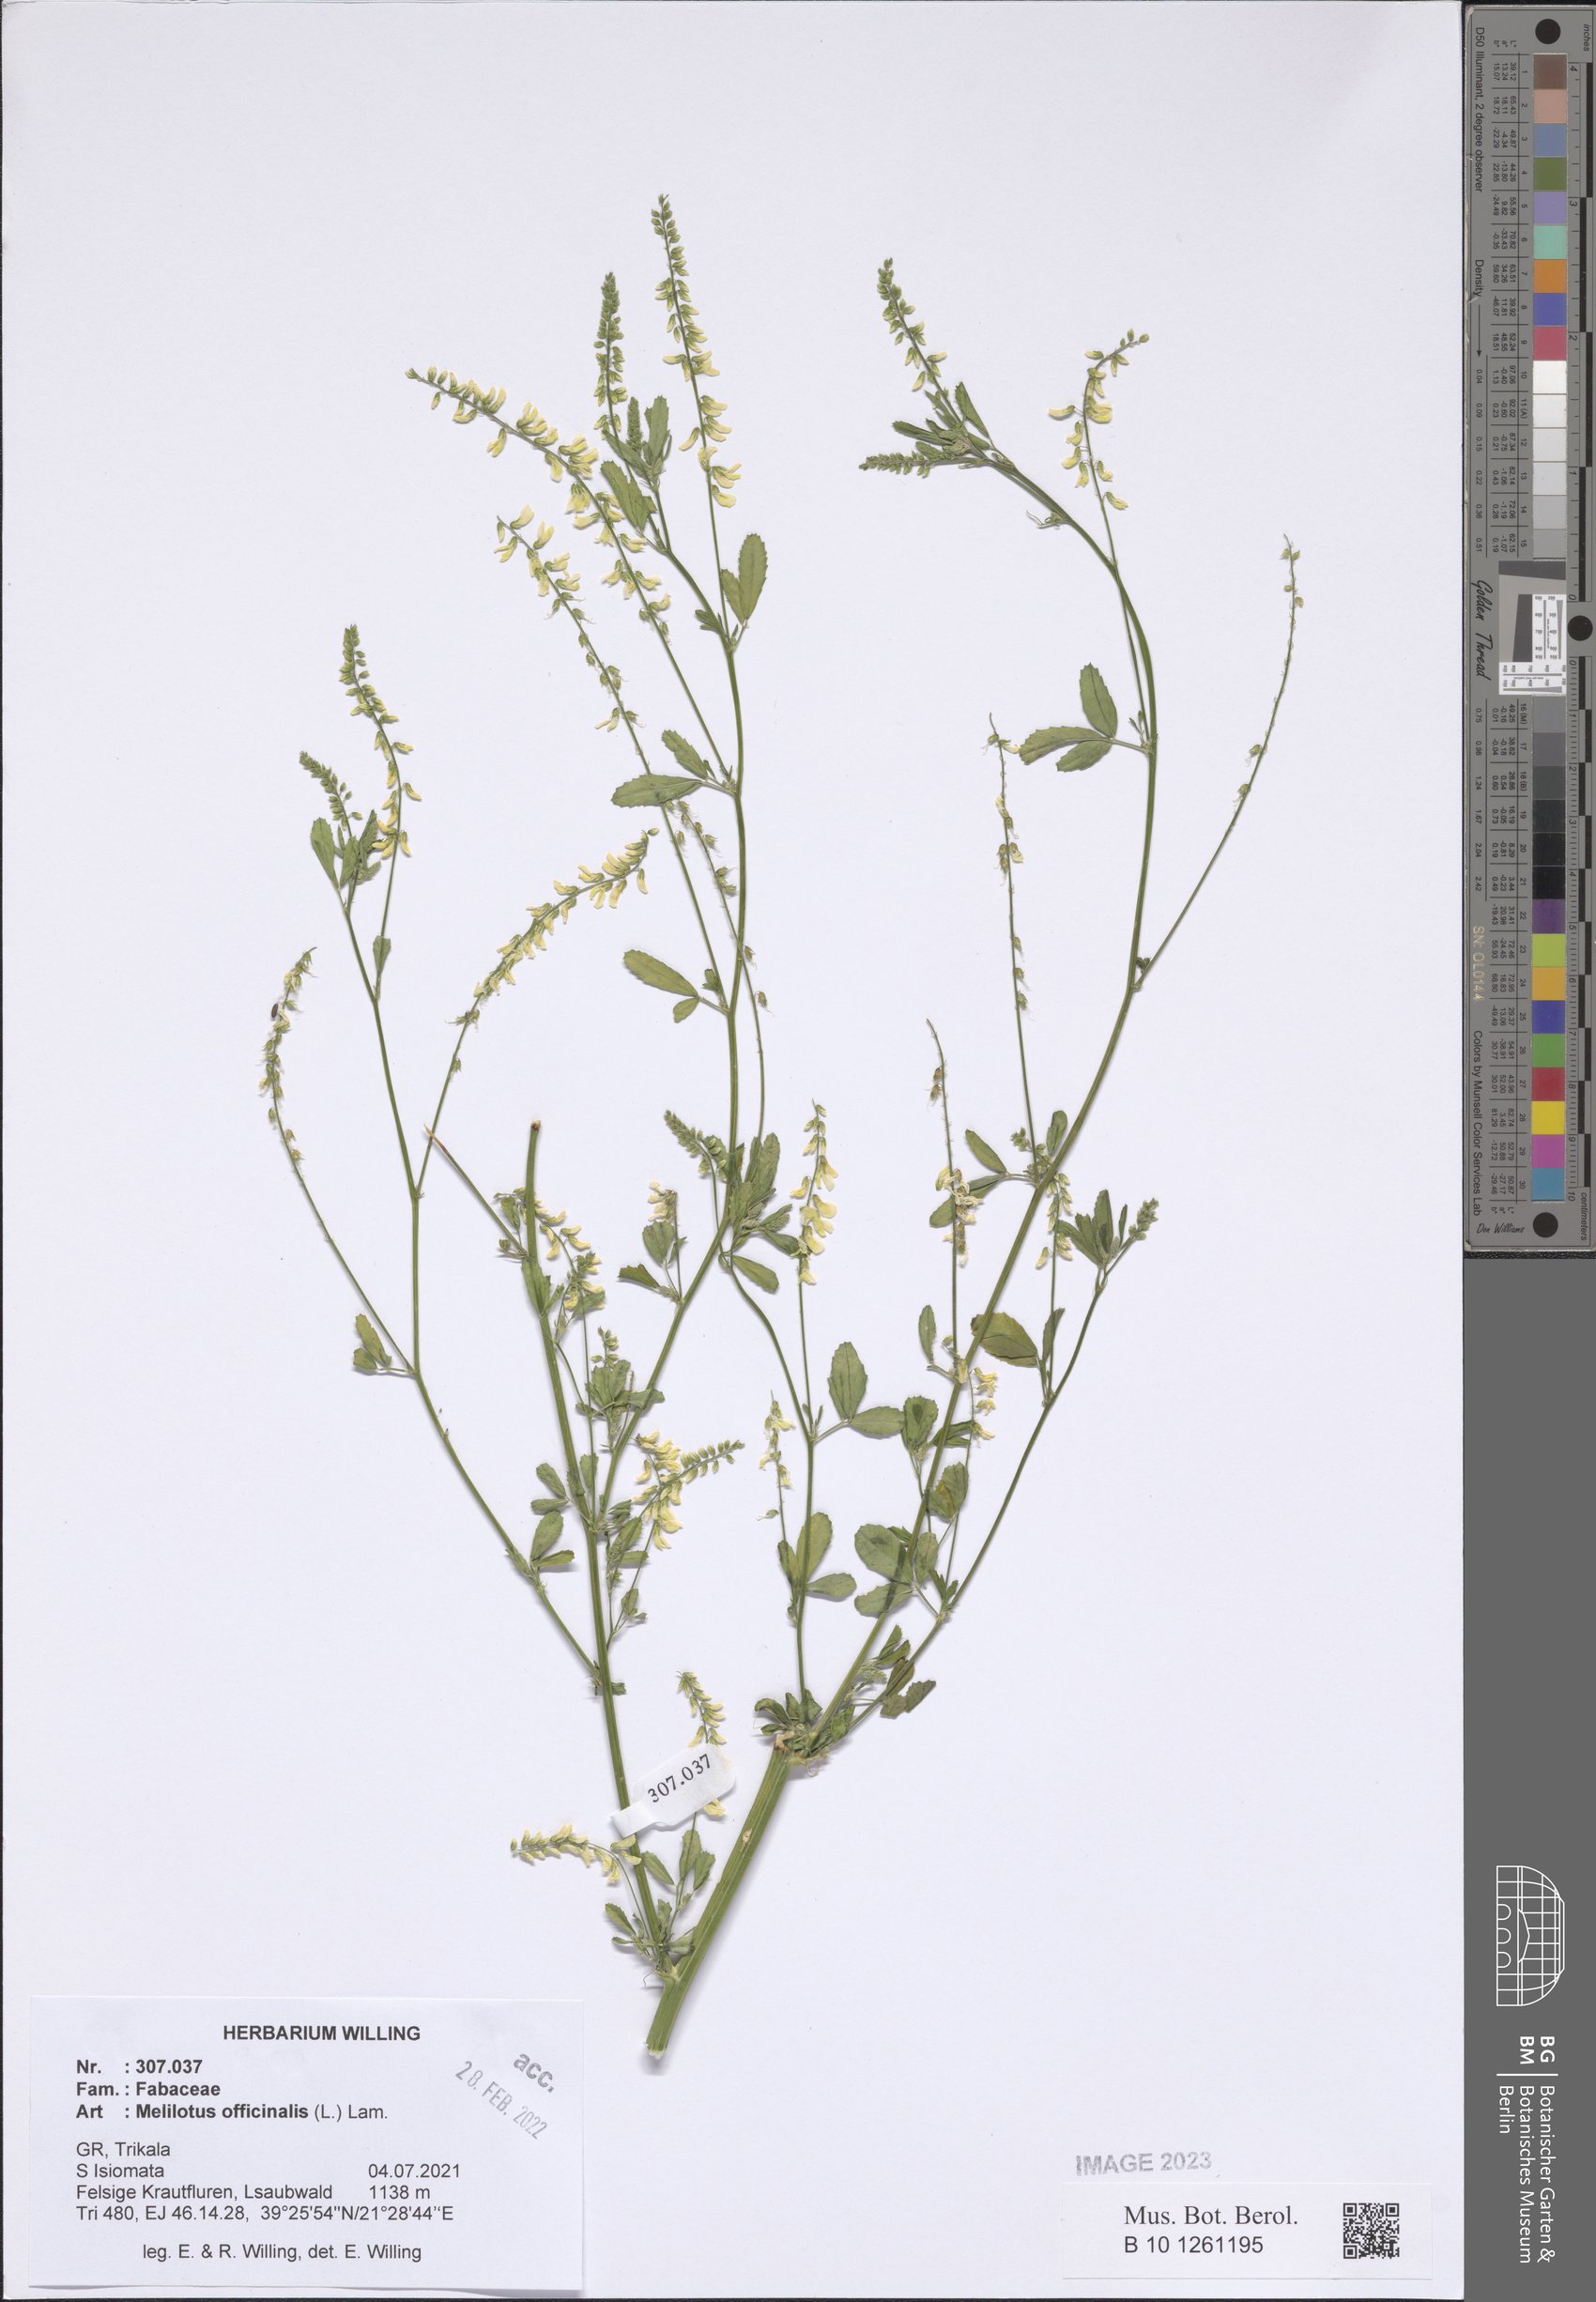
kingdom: Plantae
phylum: Tracheophyta
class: Magnoliopsida
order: Fabales
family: Fabaceae
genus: Melilotus
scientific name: Melilotus officinalis
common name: Sweetclover
